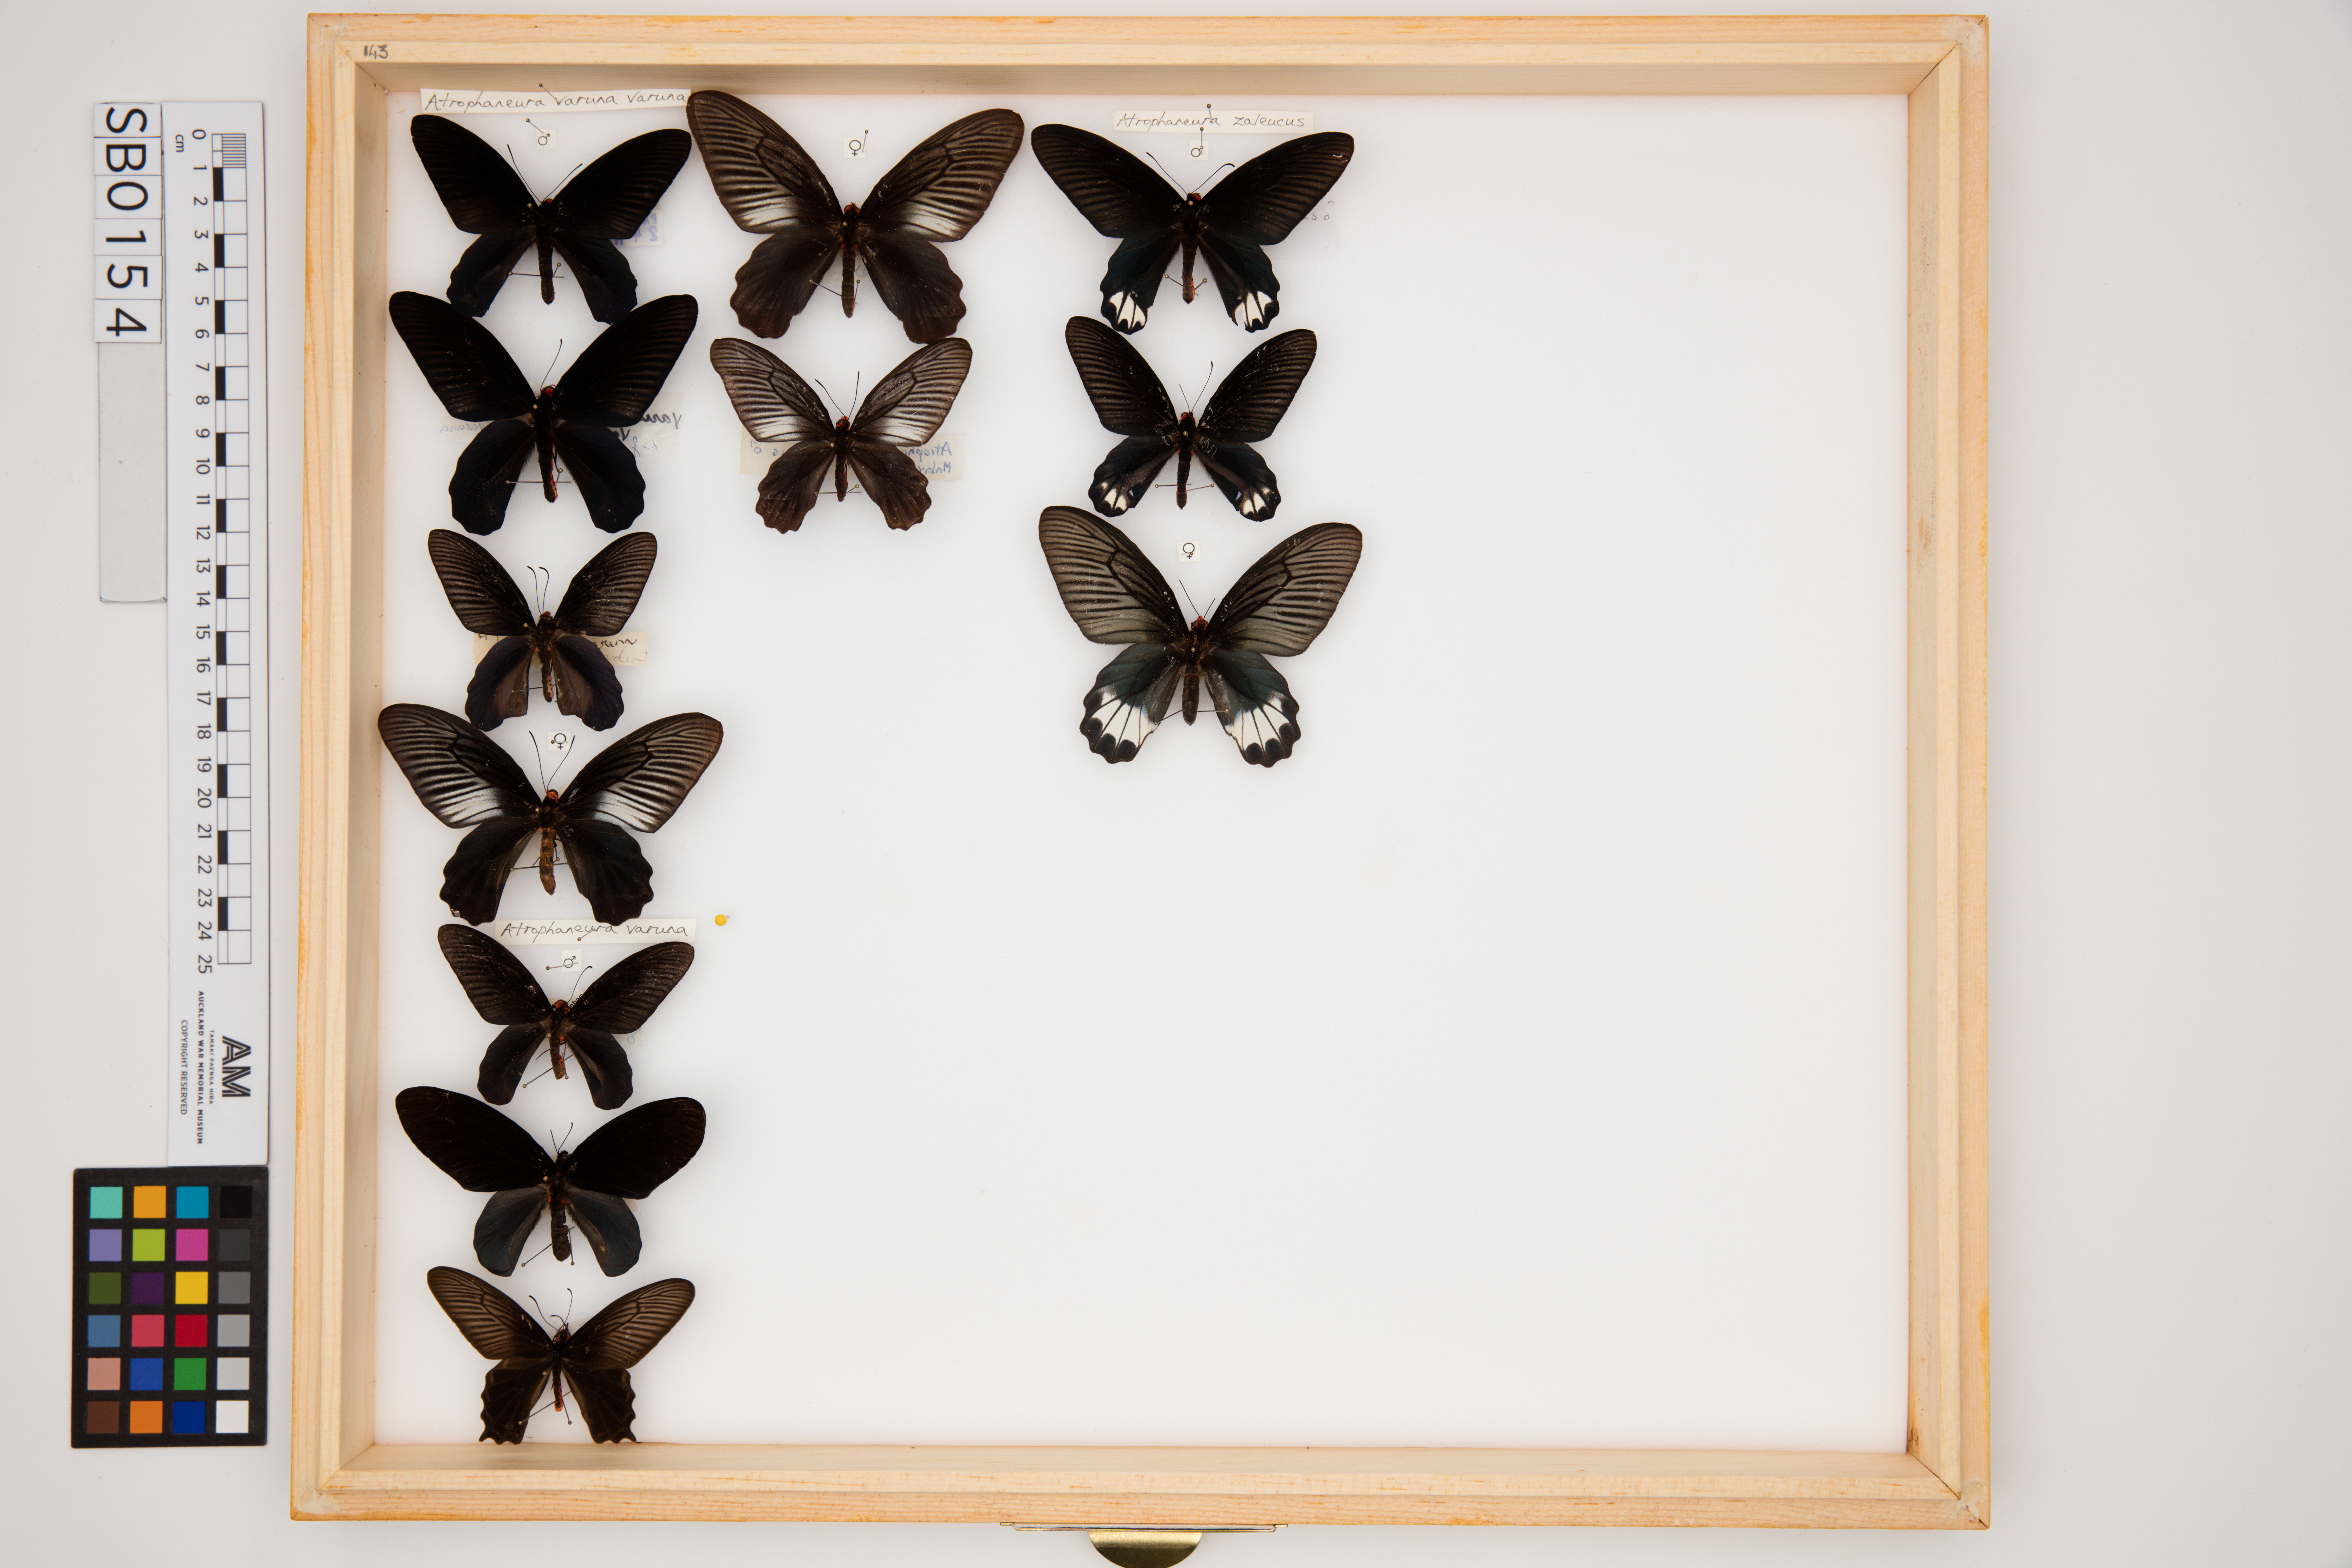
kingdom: Animalia
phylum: Arthropoda
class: Insecta
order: Lepidoptera
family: Papilionidae
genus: Atrophaneura
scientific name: Atrophaneura varuna
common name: Common batwing
